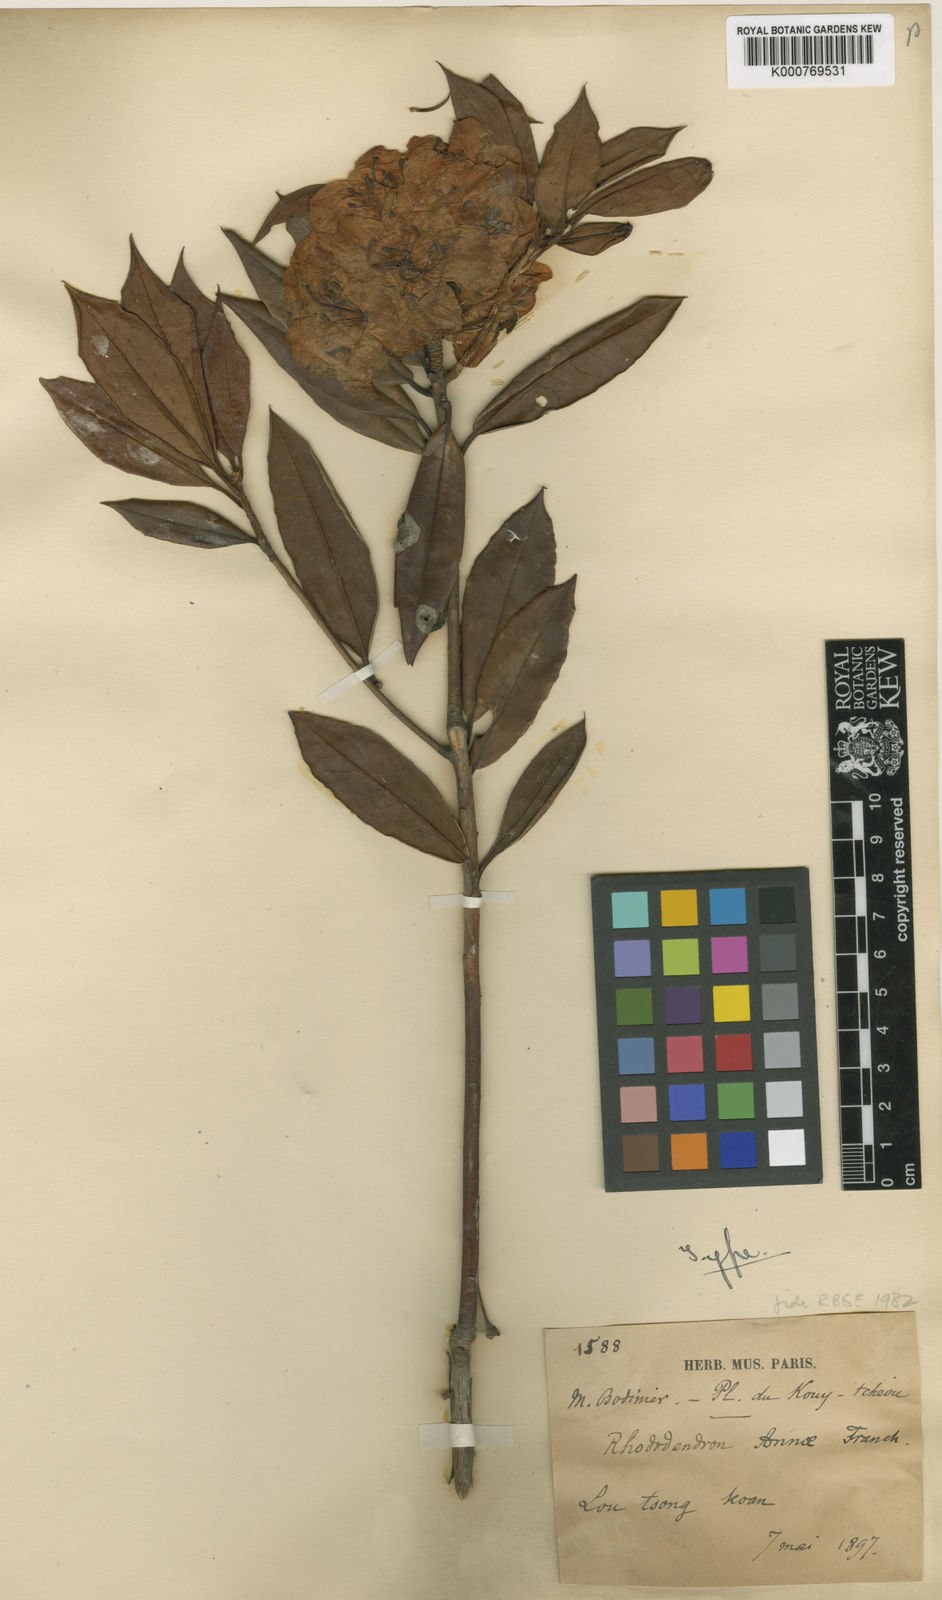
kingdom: Plantae
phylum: Tracheophyta
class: Magnoliopsida
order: Ericales
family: Ericaceae
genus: Rhododendron
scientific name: Rhododendron annae
